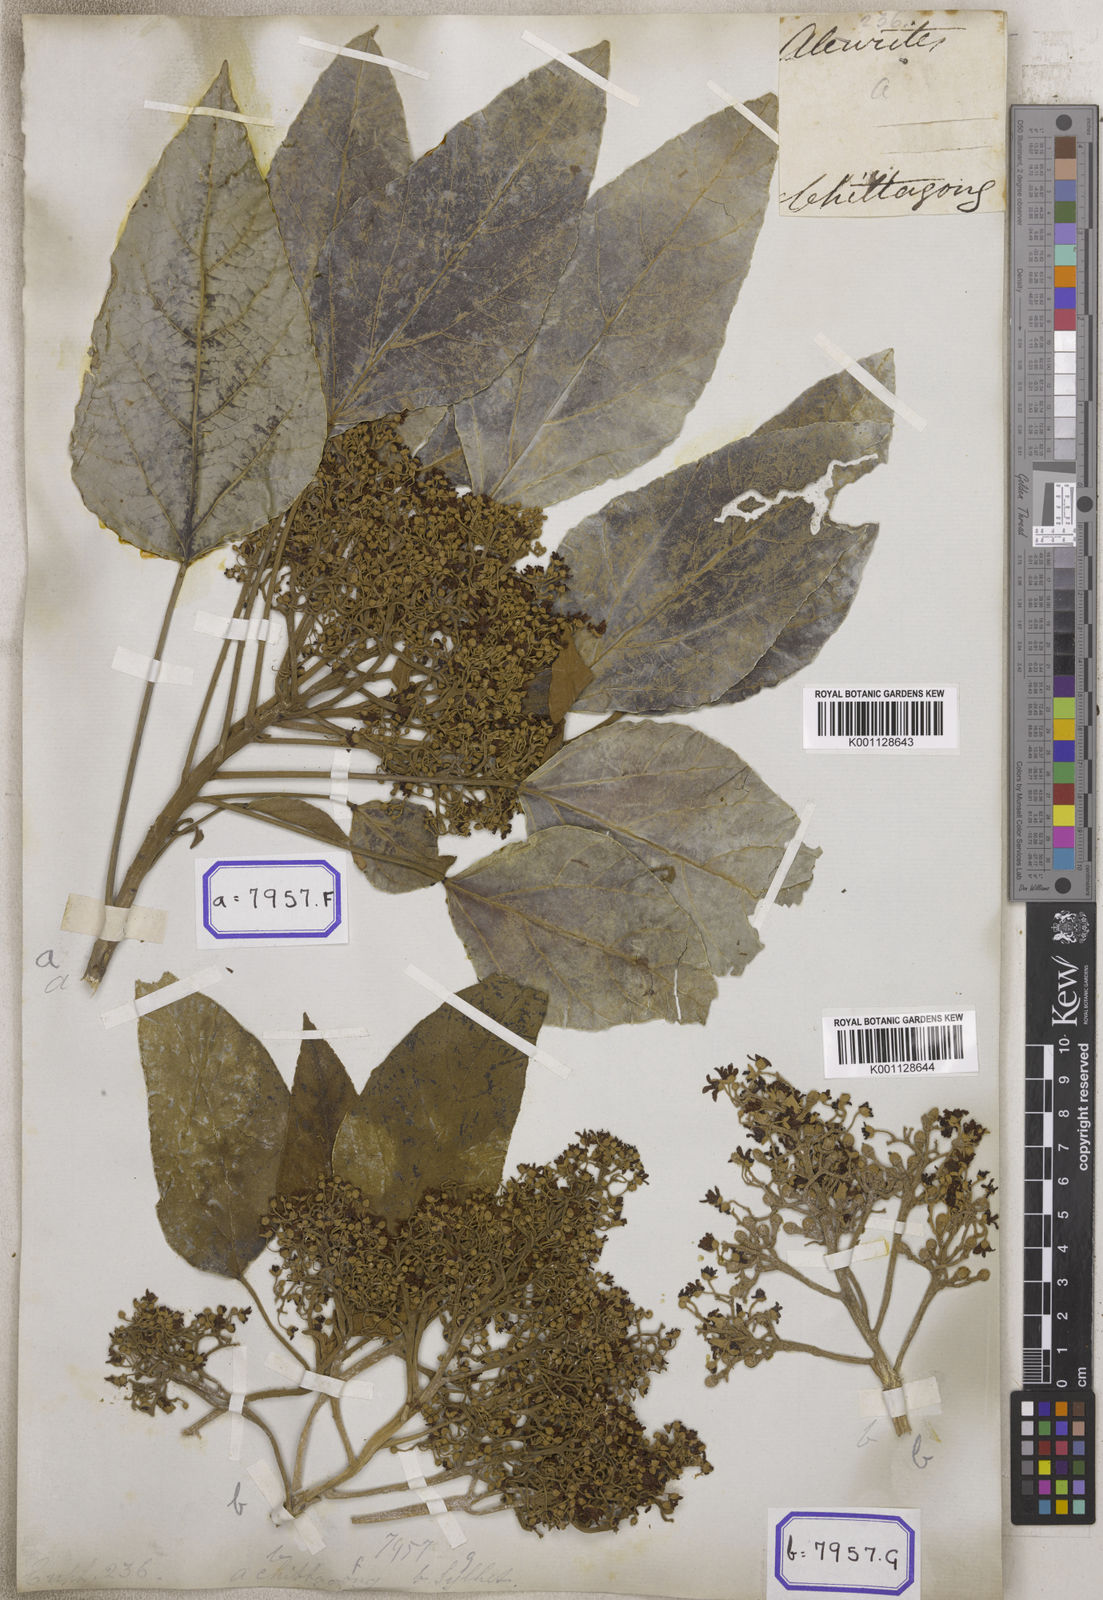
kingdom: Plantae
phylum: Tracheophyta
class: Magnoliopsida
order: Malpighiales
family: Euphorbiaceae
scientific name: Euphorbiaceae
